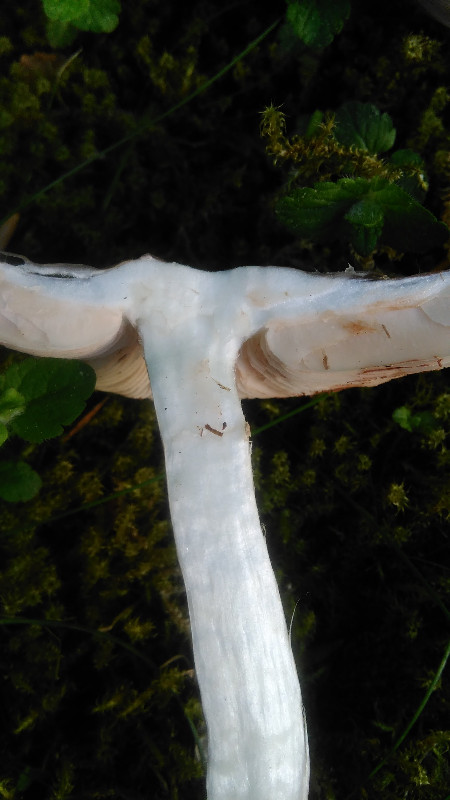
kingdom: Fungi
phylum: Basidiomycota
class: Agaricomycetes
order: Agaricales
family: Pluteaceae
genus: Pluteus
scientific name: Pluteus cervinus
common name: sodfarvet skærmhat
